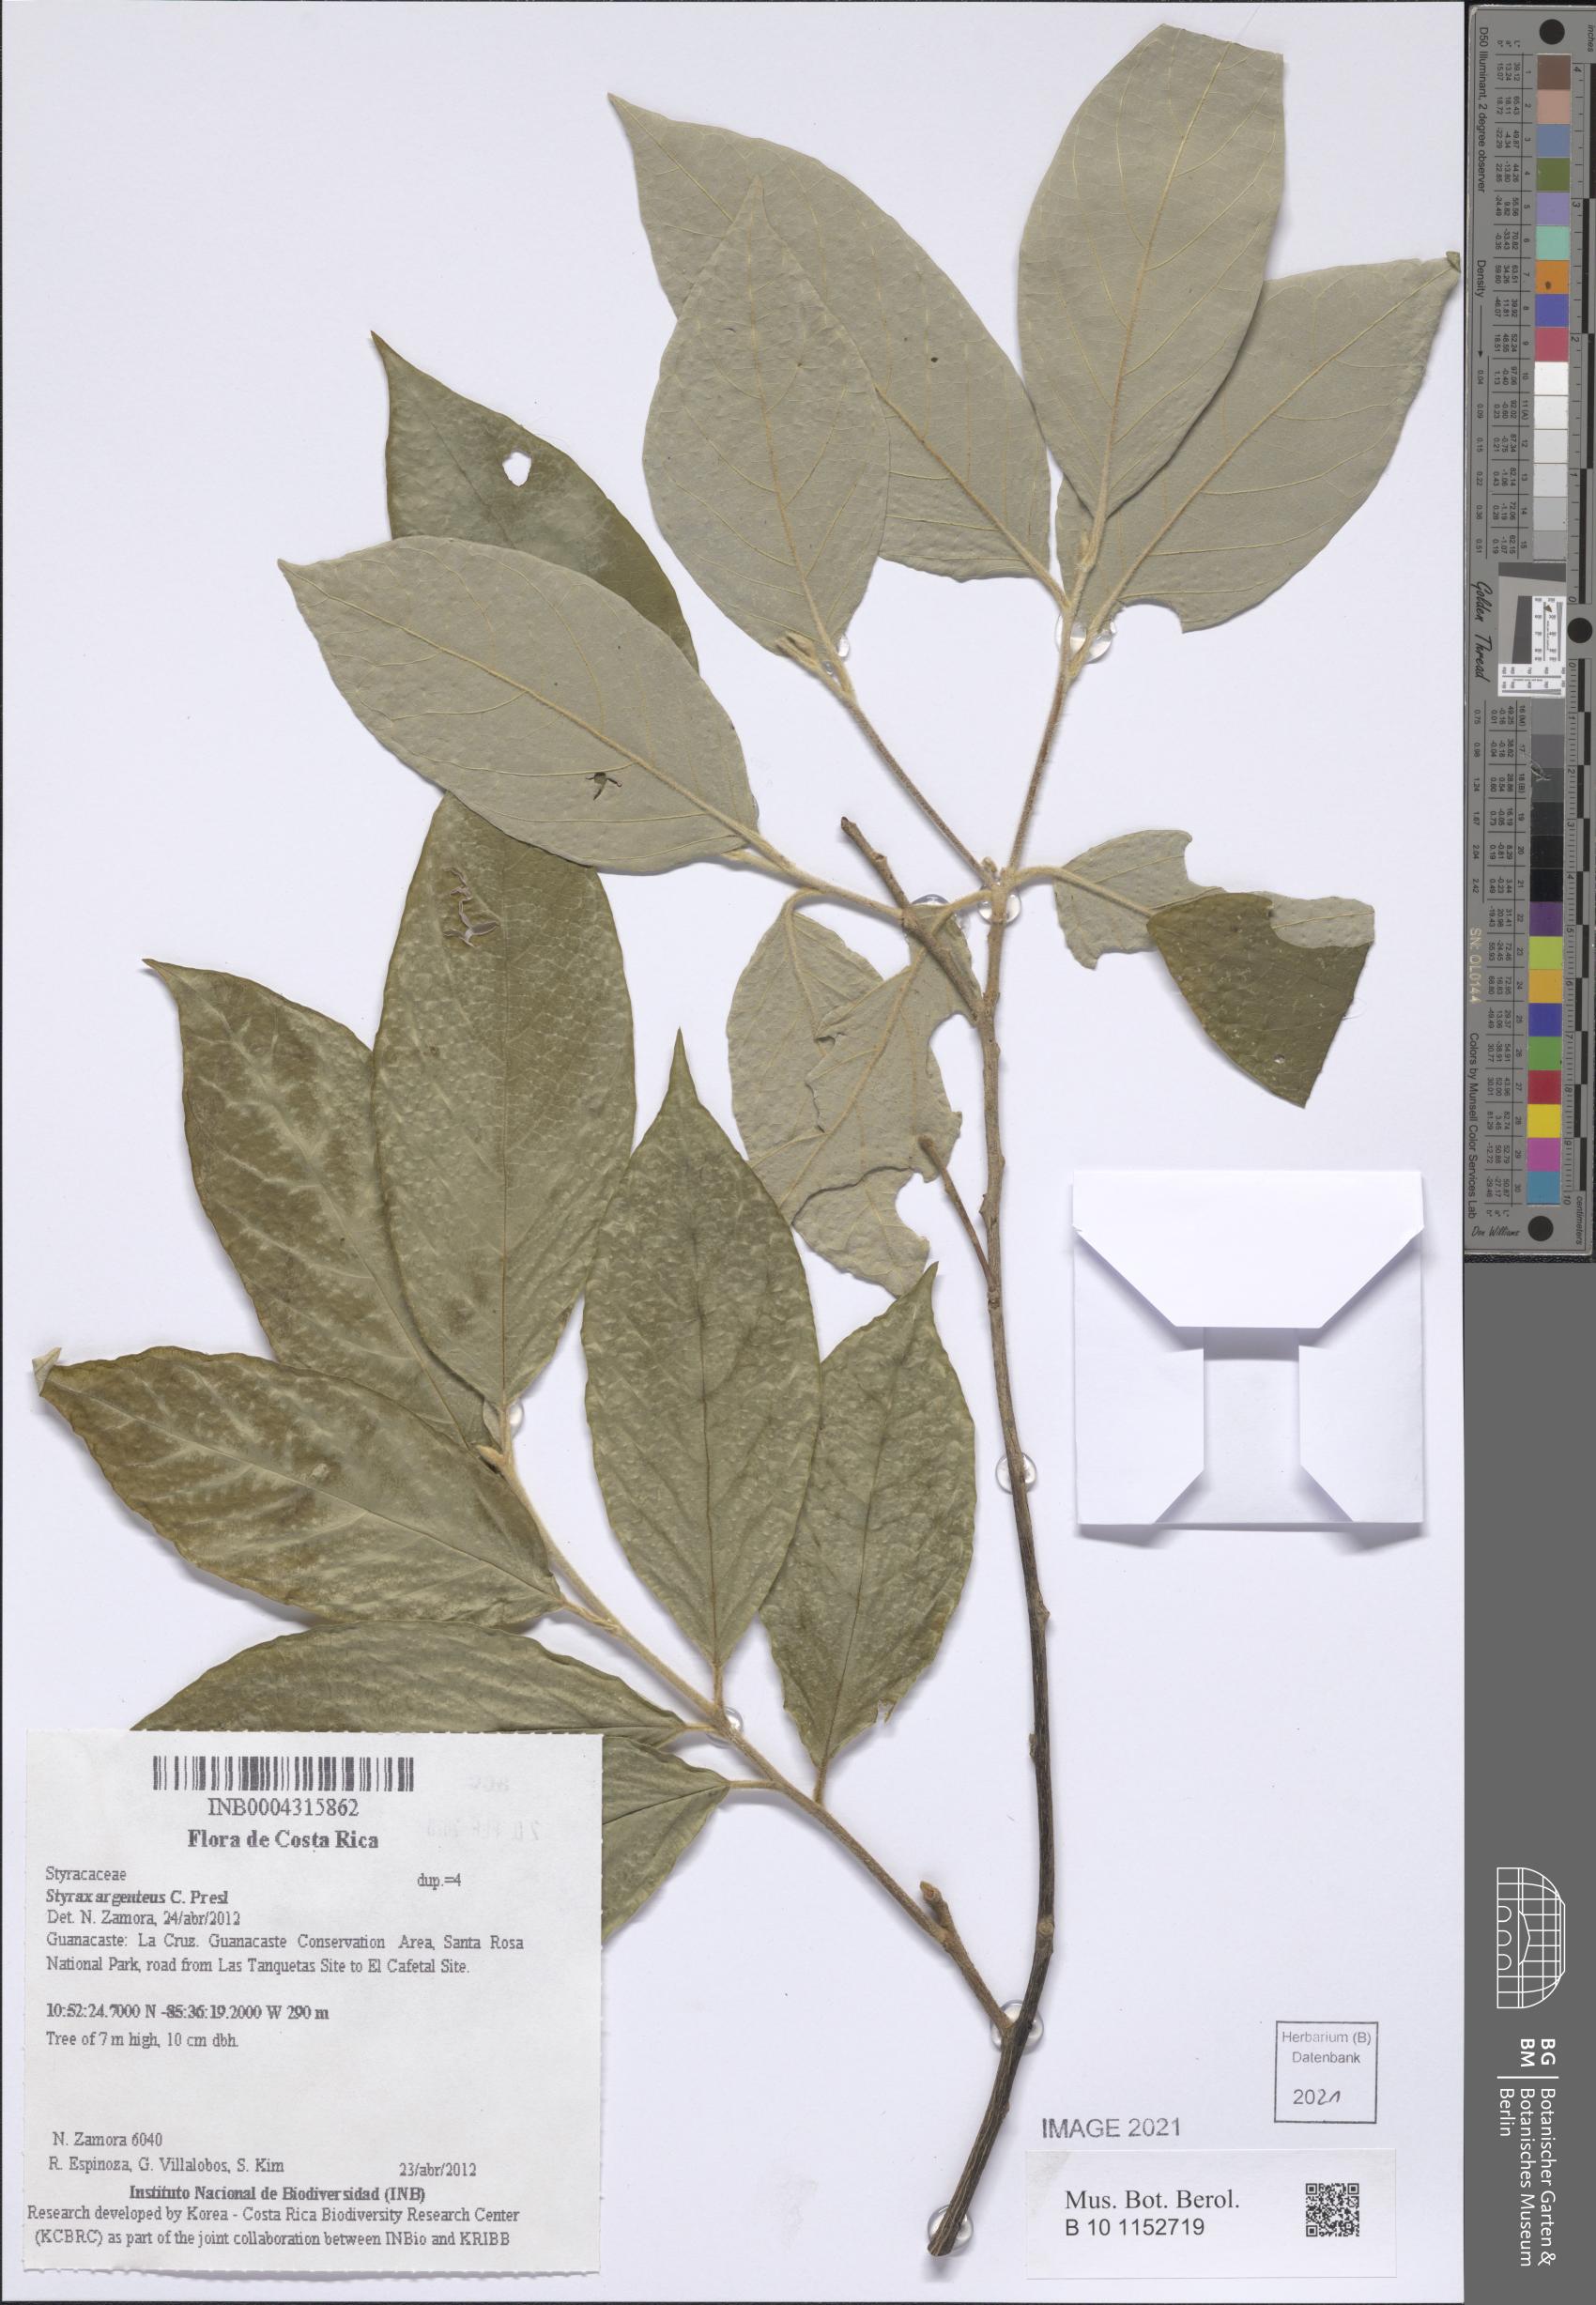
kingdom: Plantae
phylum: Tracheophyta
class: Magnoliopsida
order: Ericales
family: Styracaceae
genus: Styrax
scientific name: Styrax argenteus
